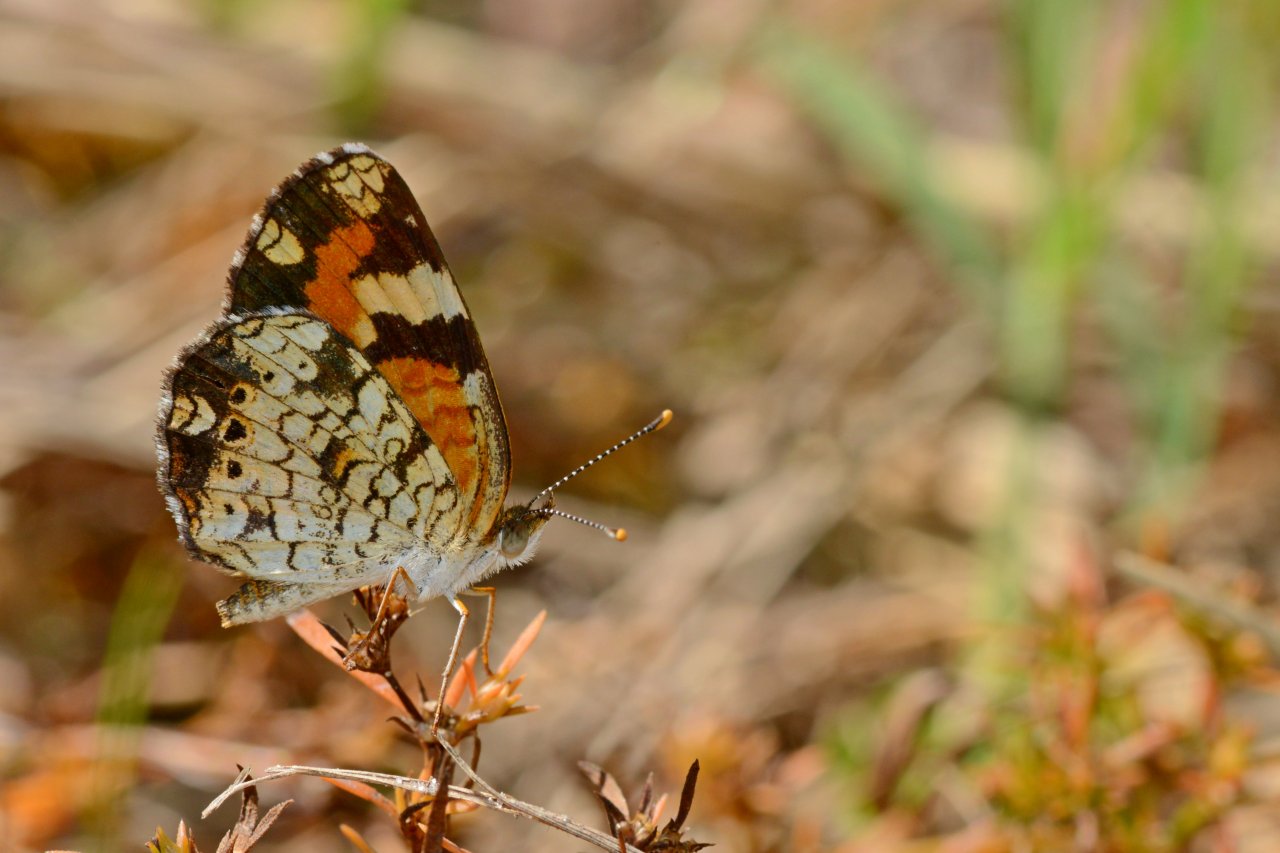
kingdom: Animalia
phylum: Arthropoda
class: Insecta
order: Lepidoptera
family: Nymphalidae
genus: Phyciodes
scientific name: Phyciodes phaon
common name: Phaon Crescent
